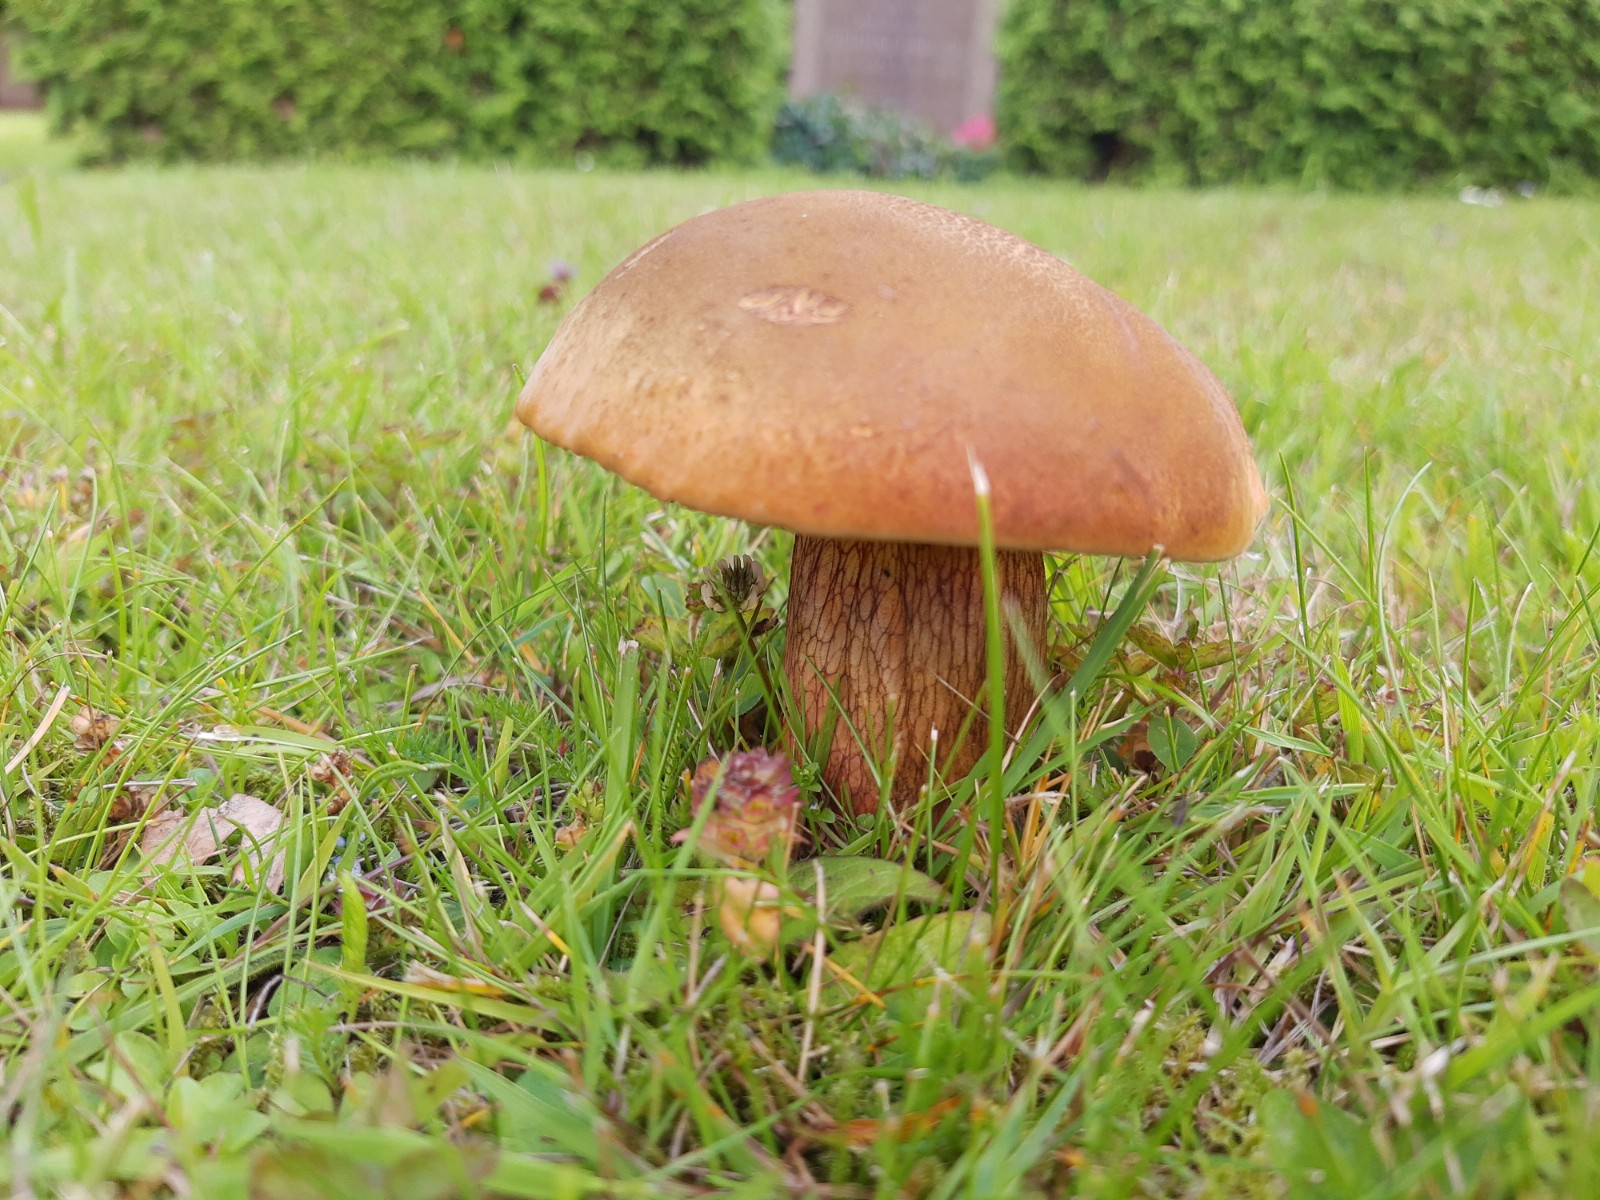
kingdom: Fungi
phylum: Basidiomycota
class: Agaricomycetes
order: Boletales
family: Boletaceae
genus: Suillellus
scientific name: Suillellus luridus
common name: netstokket indigorørhat
